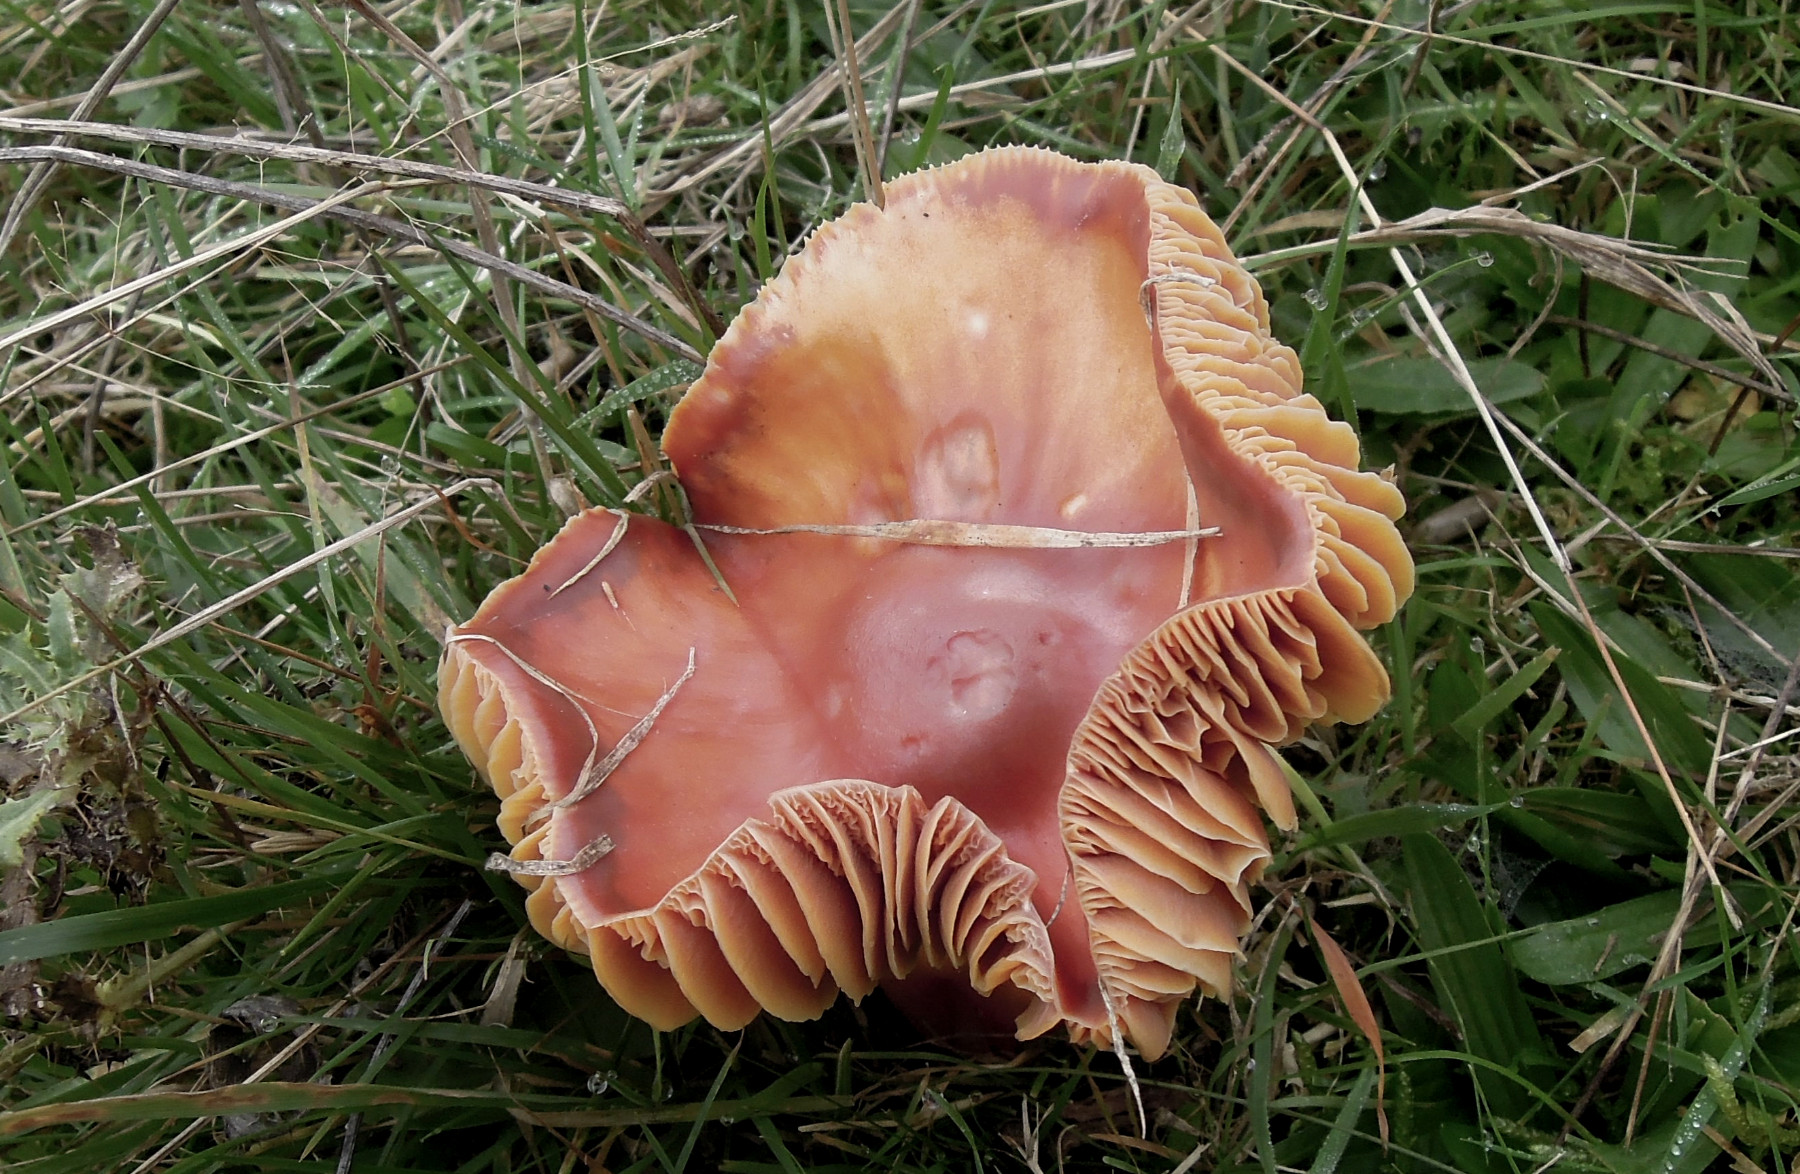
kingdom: Fungi
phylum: Basidiomycota
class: Agaricomycetes
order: Agaricales
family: Hygrophoraceae
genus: Hygrocybe
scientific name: Hygrocybe punicea
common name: skarlagen-vokshat
